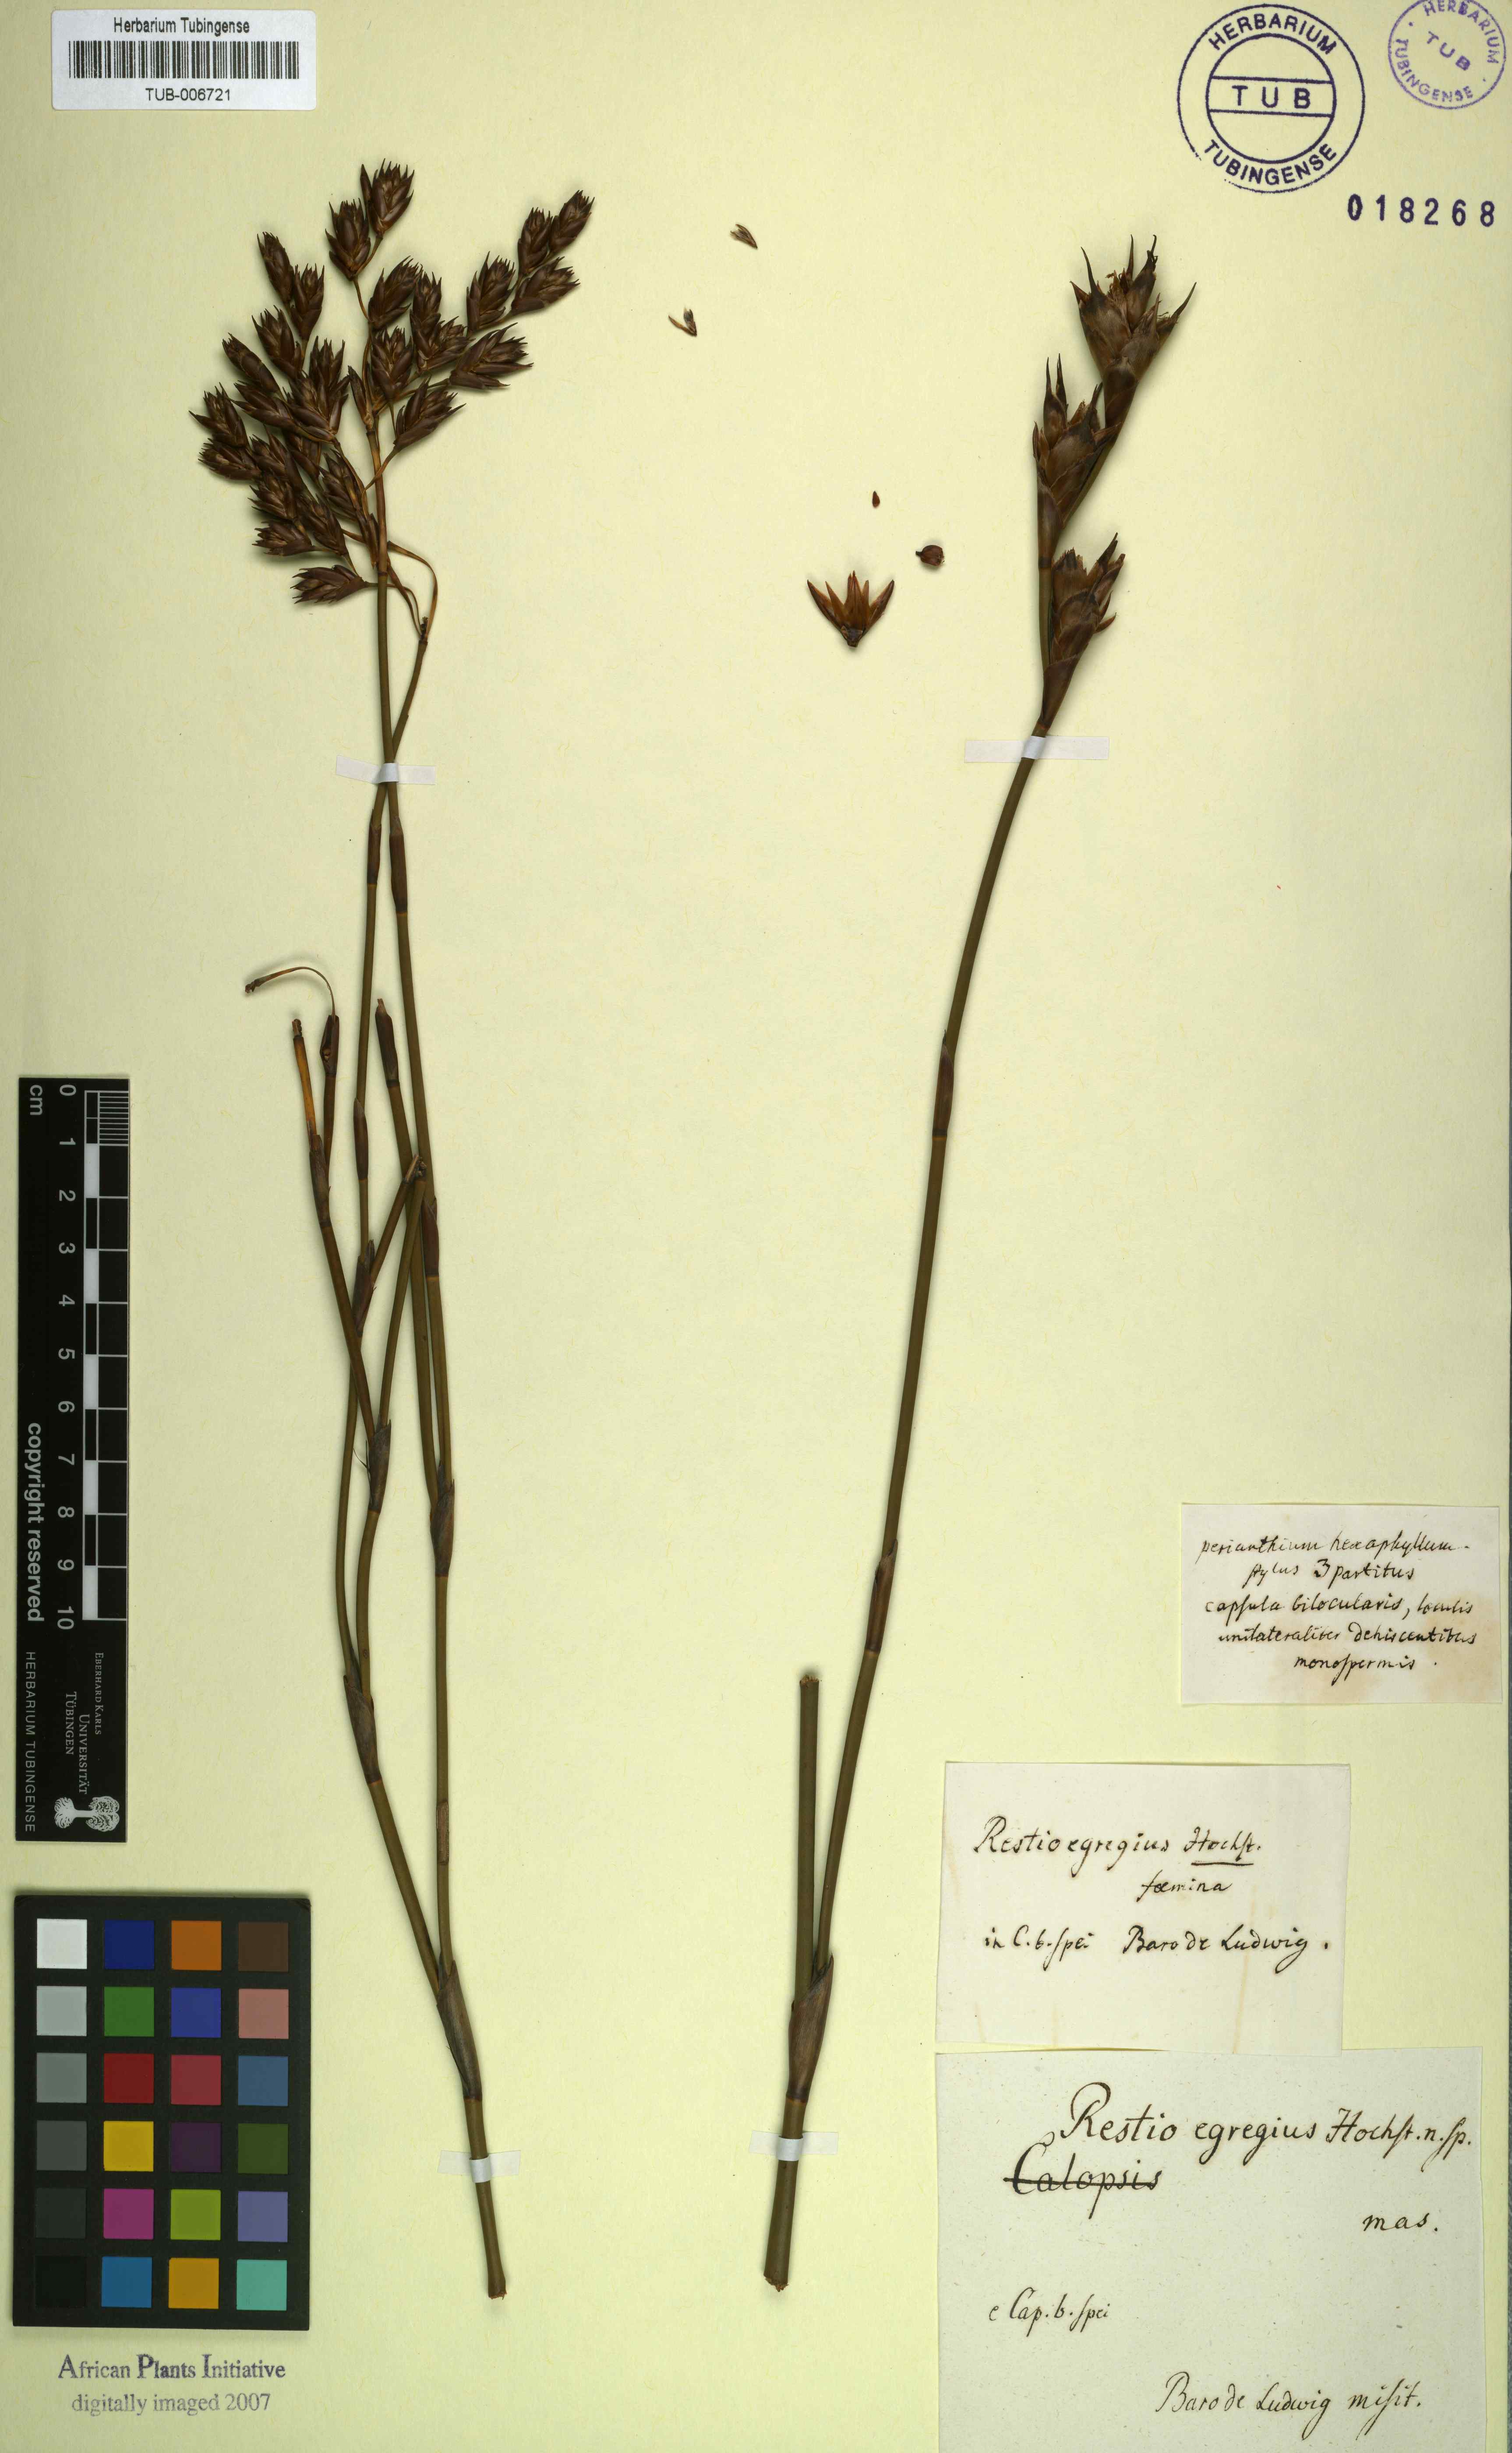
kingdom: Plantae
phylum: Tracheophyta
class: Liliopsida
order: Poales
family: Restionaceae
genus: Restio
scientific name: Restio egregius
